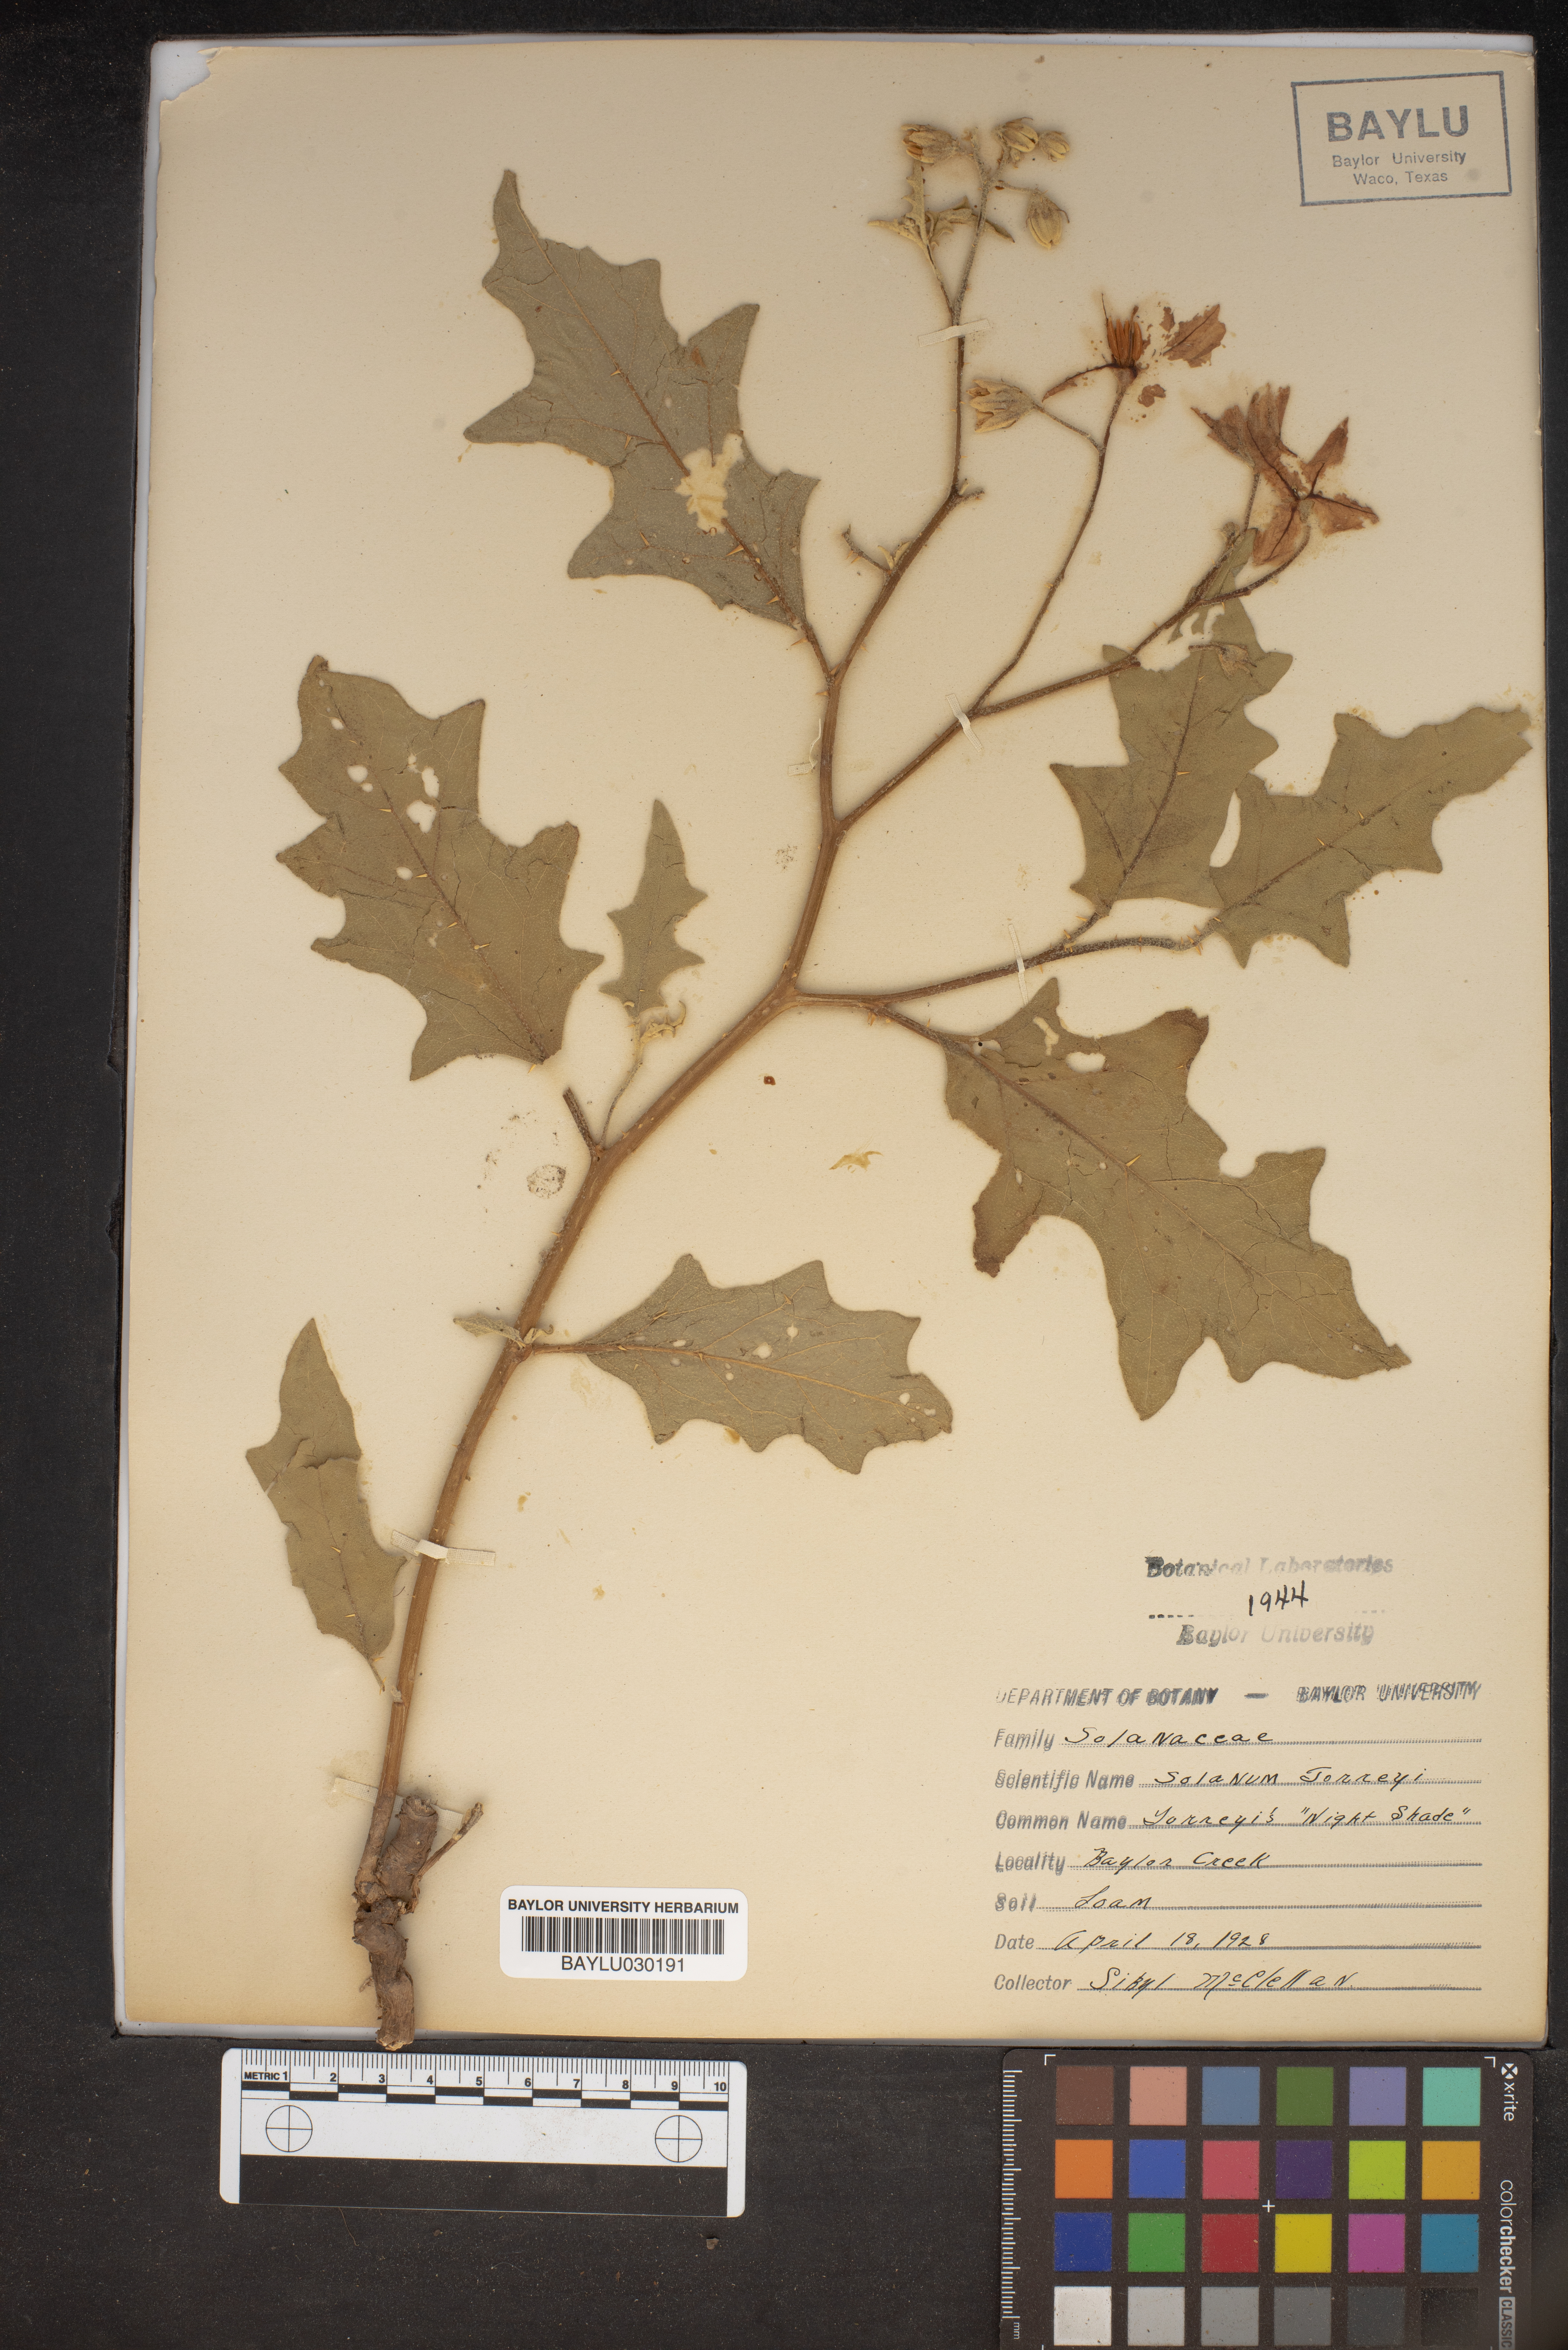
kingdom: Plantae
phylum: Tracheophyta
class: Magnoliopsida
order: Solanales
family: Solanaceae
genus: Solanum
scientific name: Solanum dimidiatum
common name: Carolina horse-nettle
